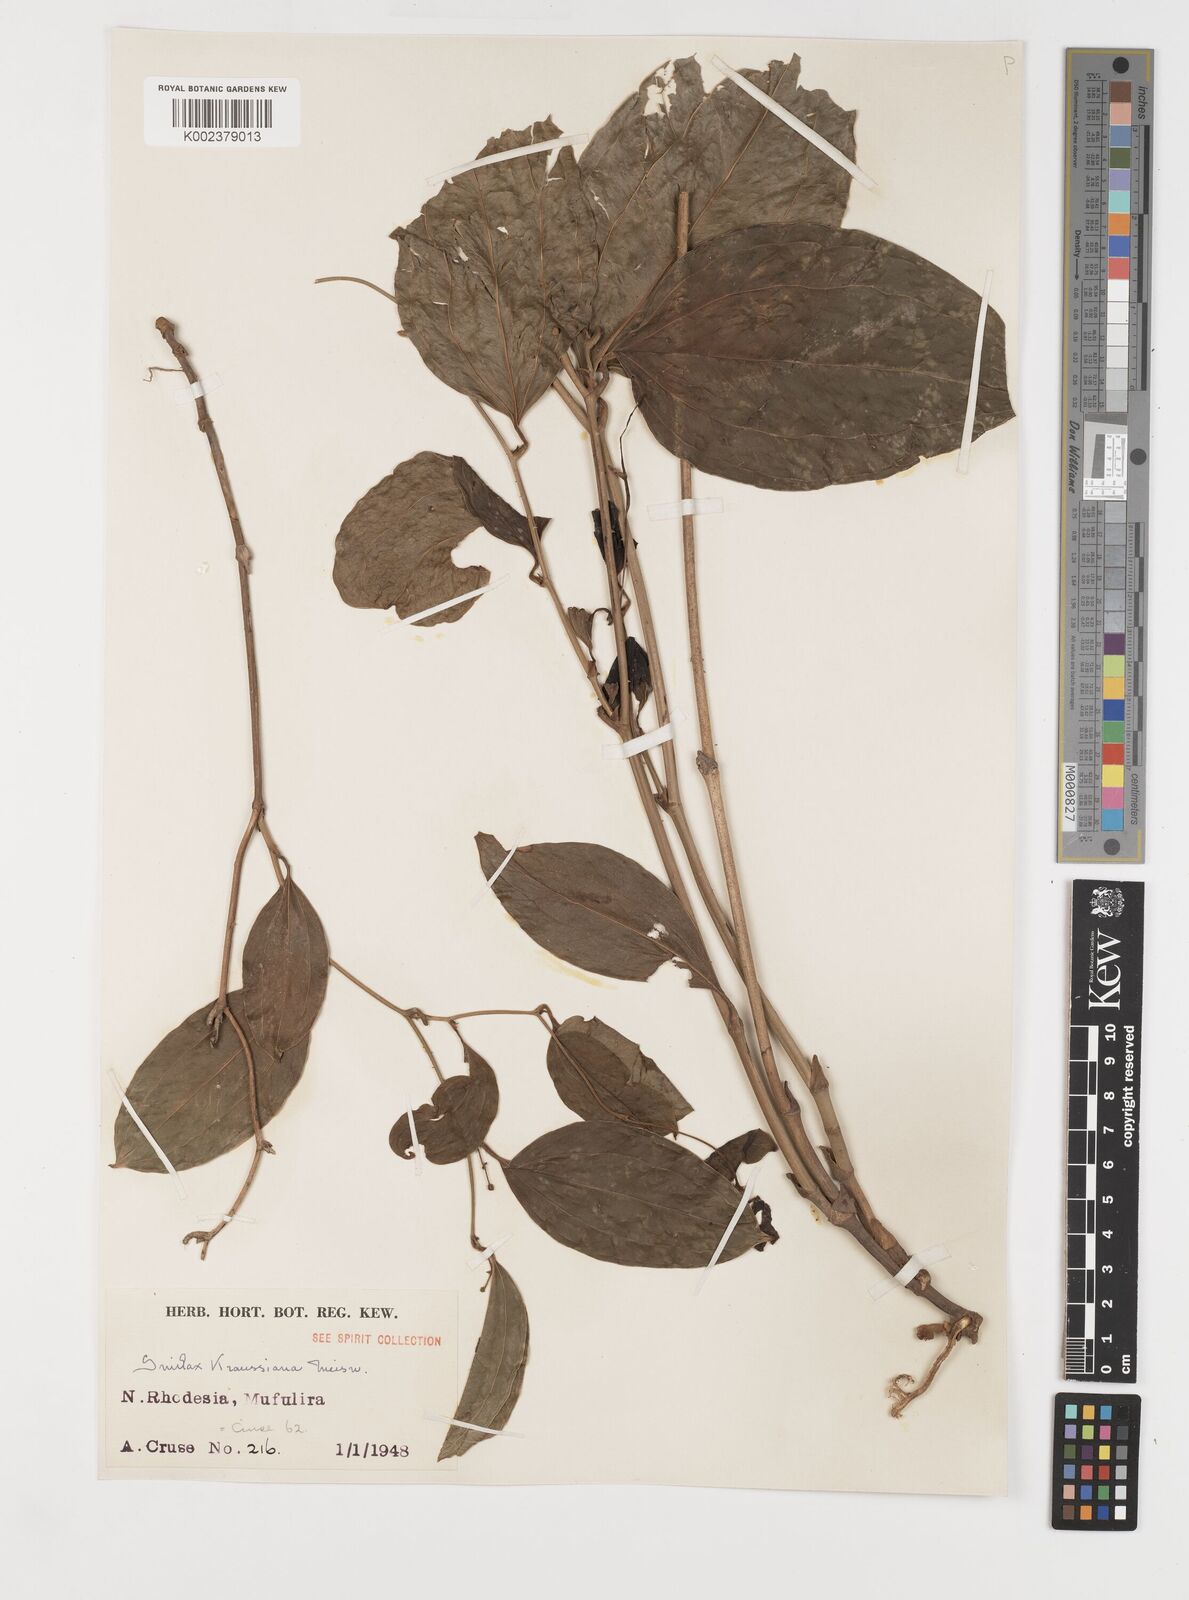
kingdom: Plantae
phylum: Tracheophyta
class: Liliopsida
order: Liliales
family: Smilacaceae
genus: Smilax
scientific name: Smilax anceps
